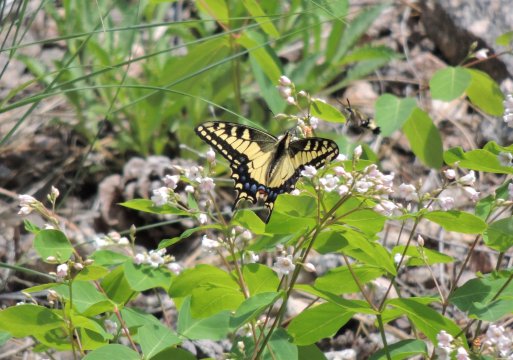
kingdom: Animalia
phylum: Arthropoda
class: Insecta
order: Lepidoptera
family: Papilionidae
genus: Papilio
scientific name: Papilio machaon
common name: Old World Swallowtail
